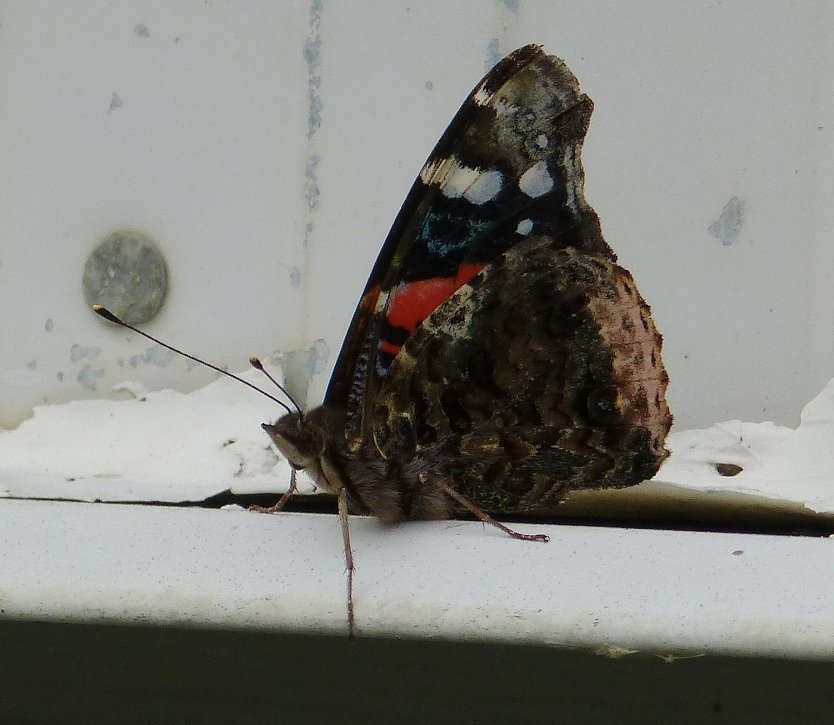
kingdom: Animalia
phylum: Arthropoda
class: Insecta
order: Lepidoptera
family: Nymphalidae
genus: Vanessa
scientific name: Vanessa atalanta
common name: Red Admiral
